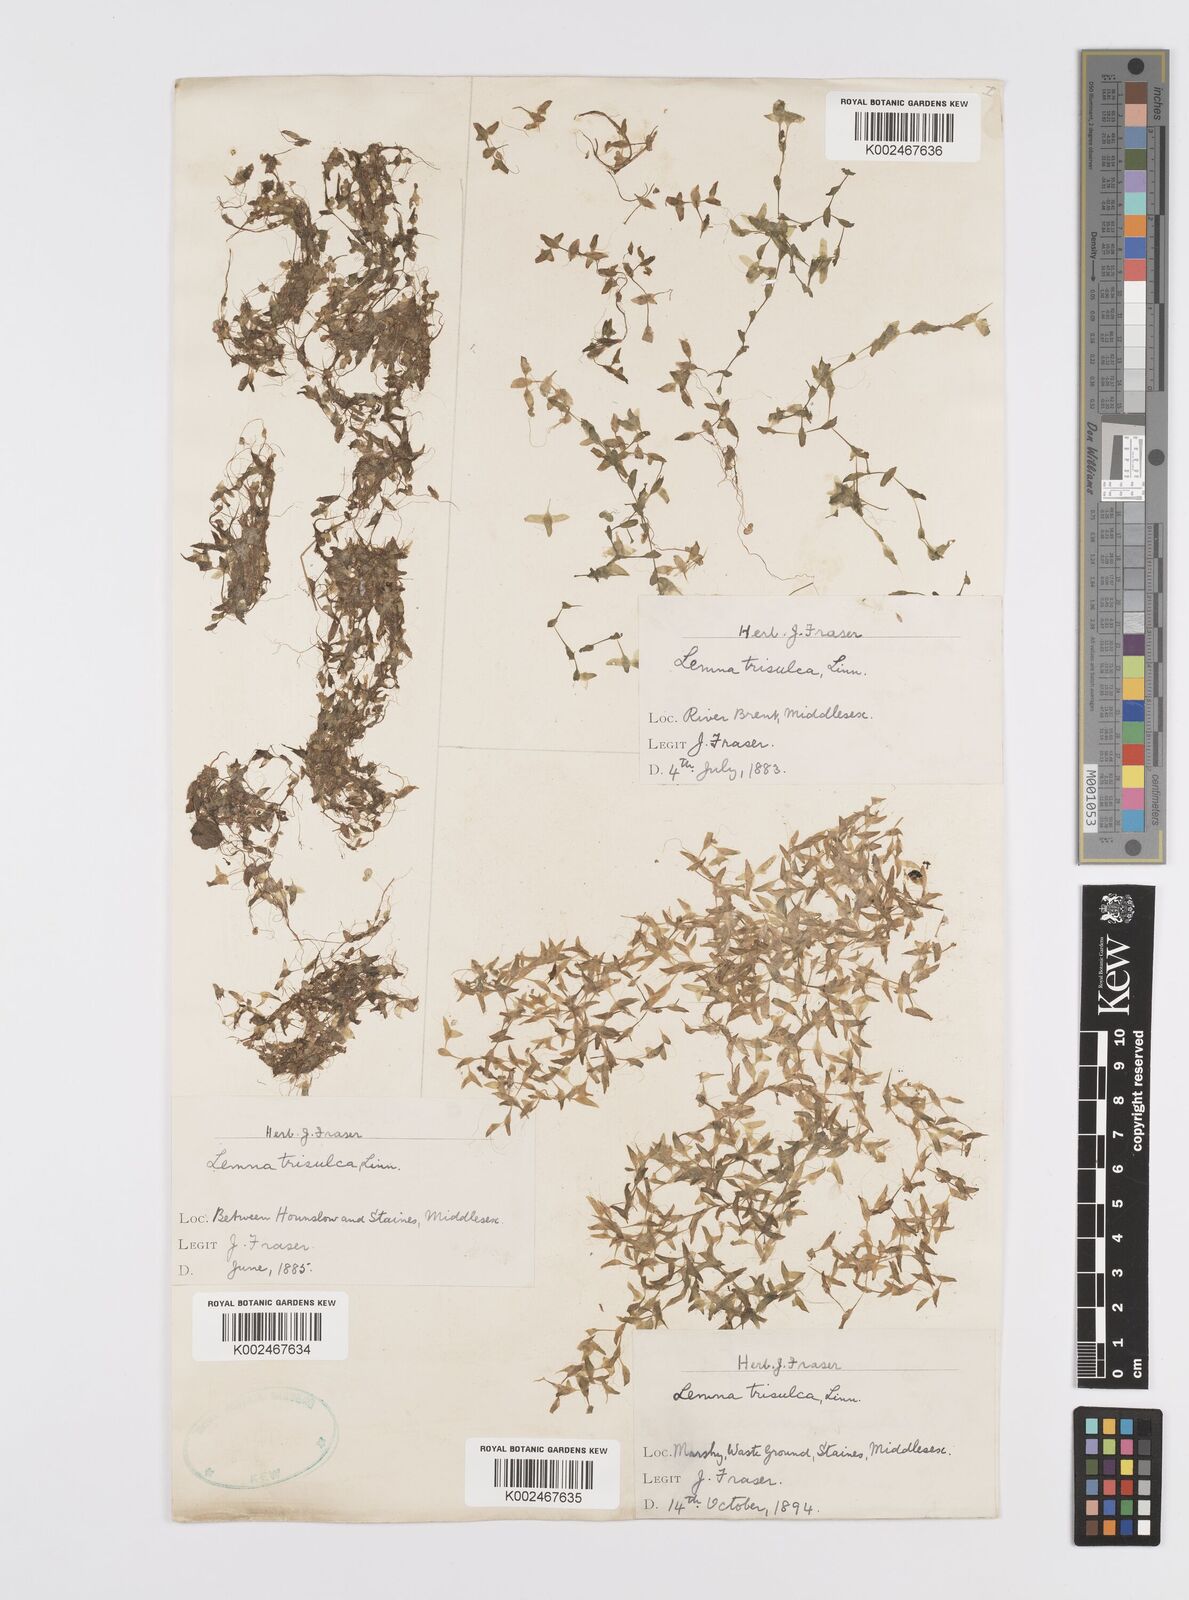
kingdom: Plantae
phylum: Tracheophyta
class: Liliopsida
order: Alismatales
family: Araceae
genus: Lemna
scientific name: Lemna trisulca
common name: Ivy-leaved duckweed
